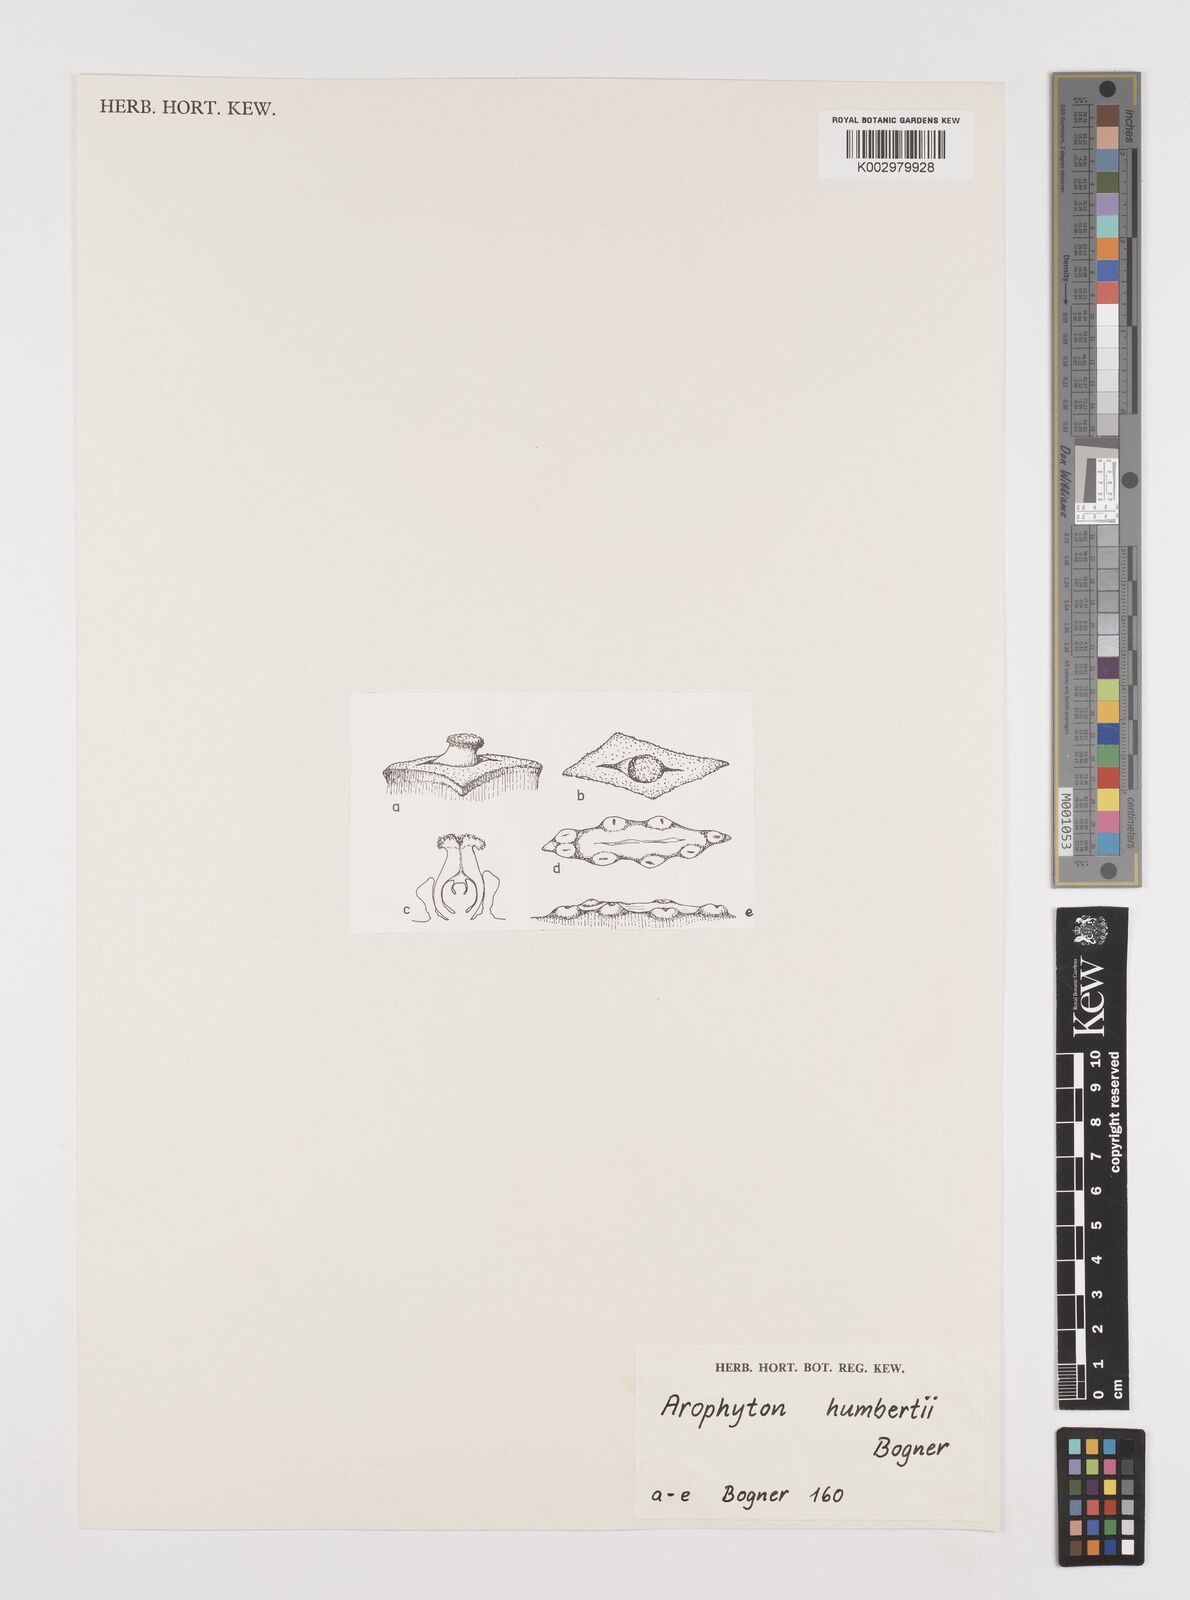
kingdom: Plantae
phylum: Tracheophyta
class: Liliopsida
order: Alismatales
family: Araceae
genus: Arophyton
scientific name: Arophyton humbertii
